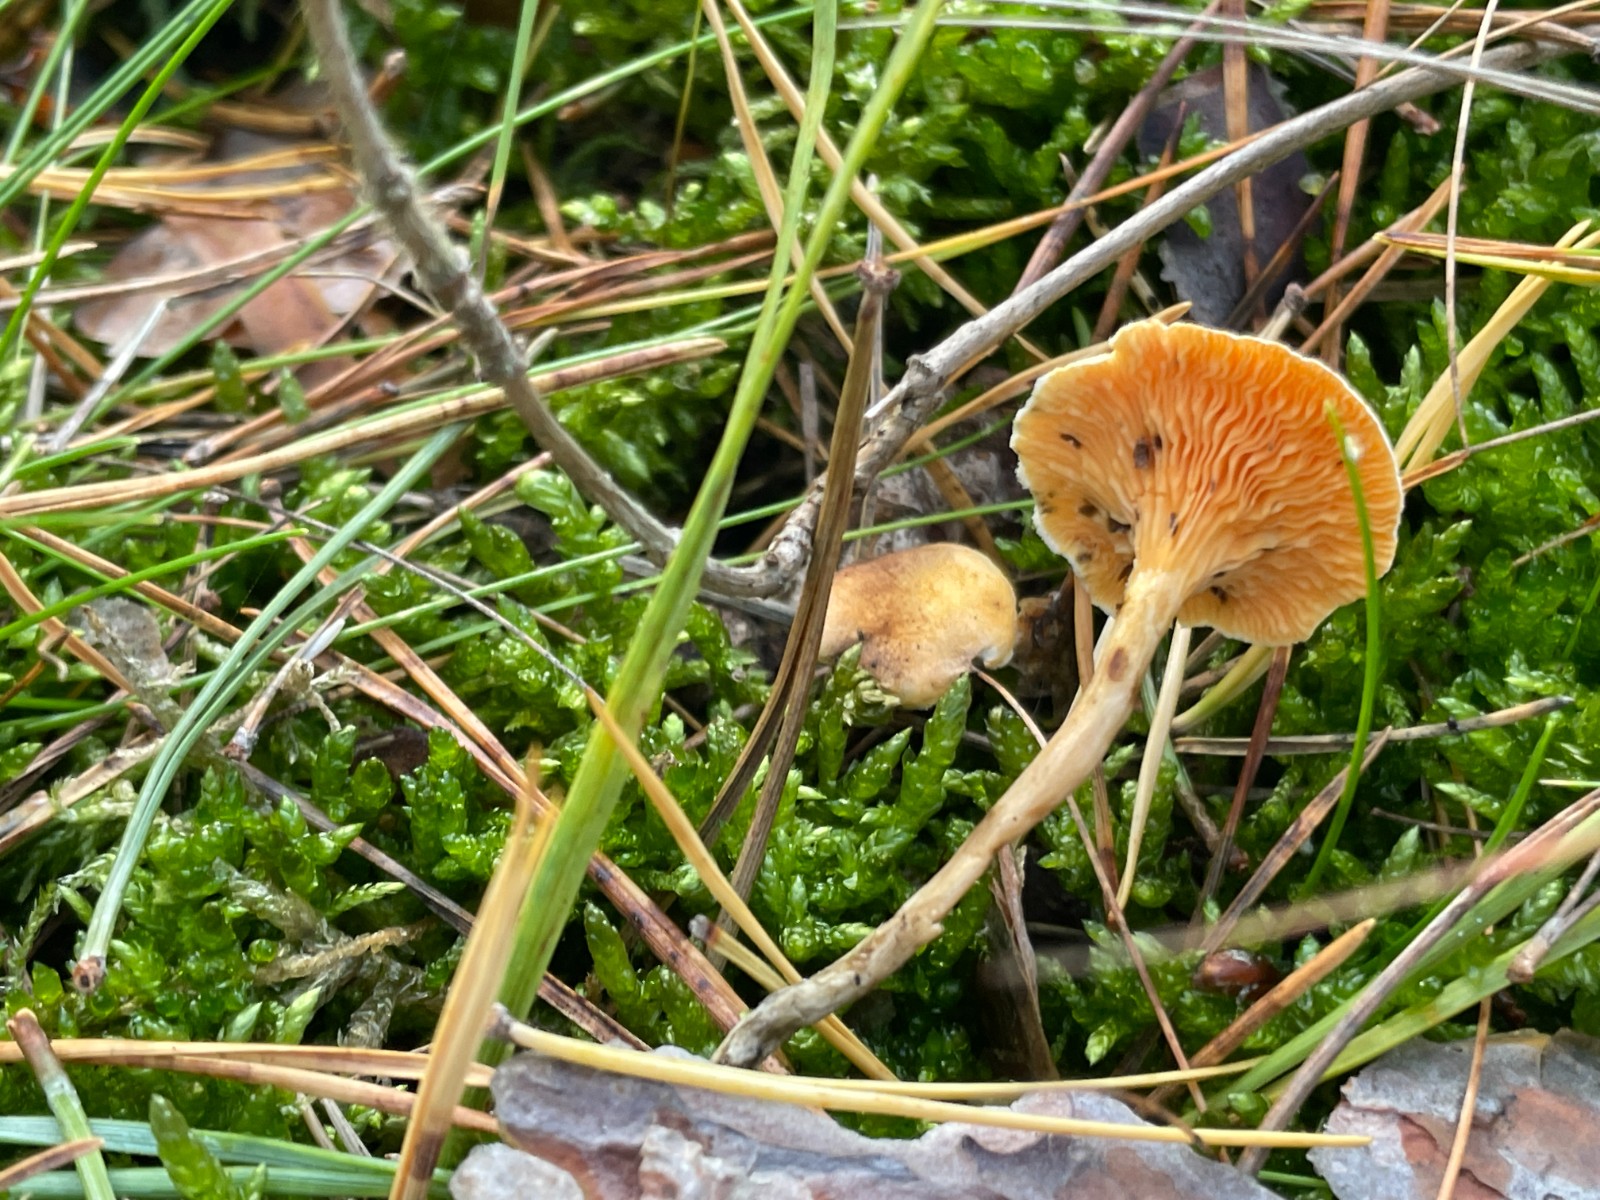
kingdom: Fungi
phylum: Basidiomycota
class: Agaricomycetes
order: Boletales
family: Hygrophoropsidaceae
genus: Hygrophoropsis
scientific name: Hygrophoropsis aurantiaca
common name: almindelig orangekantarel
